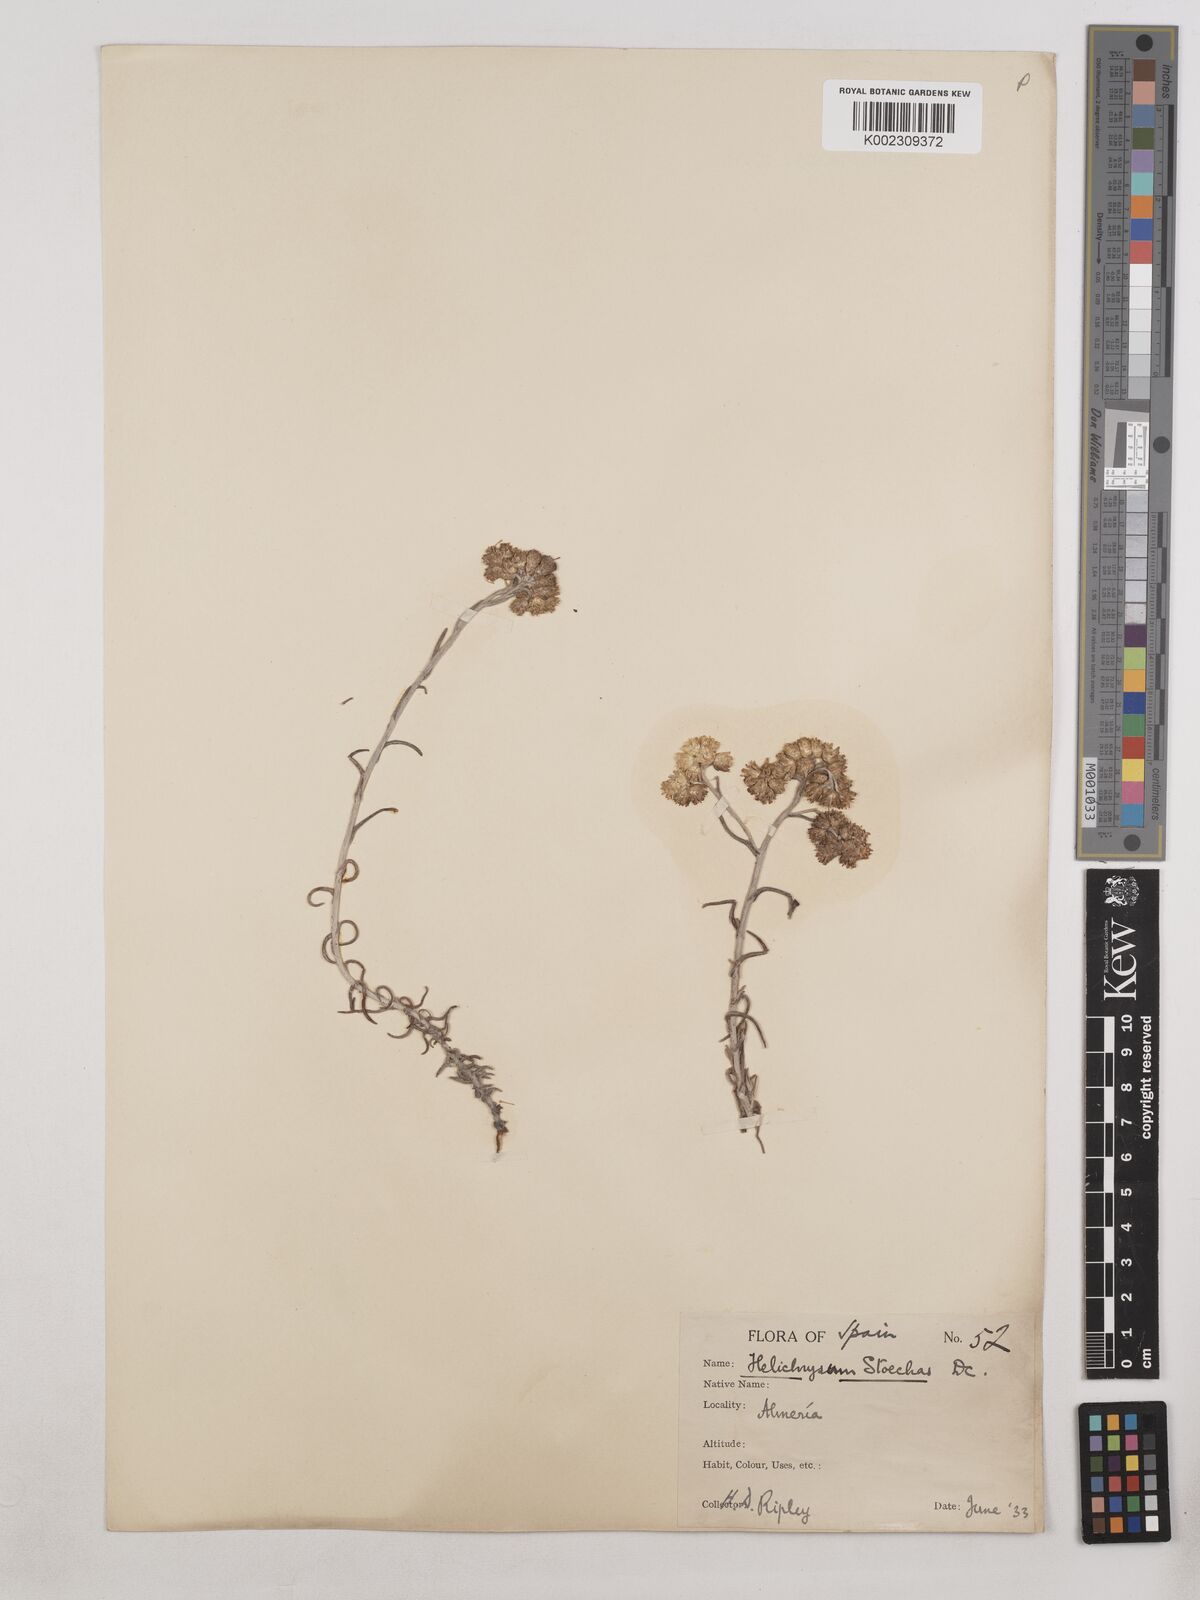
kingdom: Plantae
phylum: Tracheophyta
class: Magnoliopsida
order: Asterales
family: Asteraceae
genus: Helichrysum
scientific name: Helichrysum
